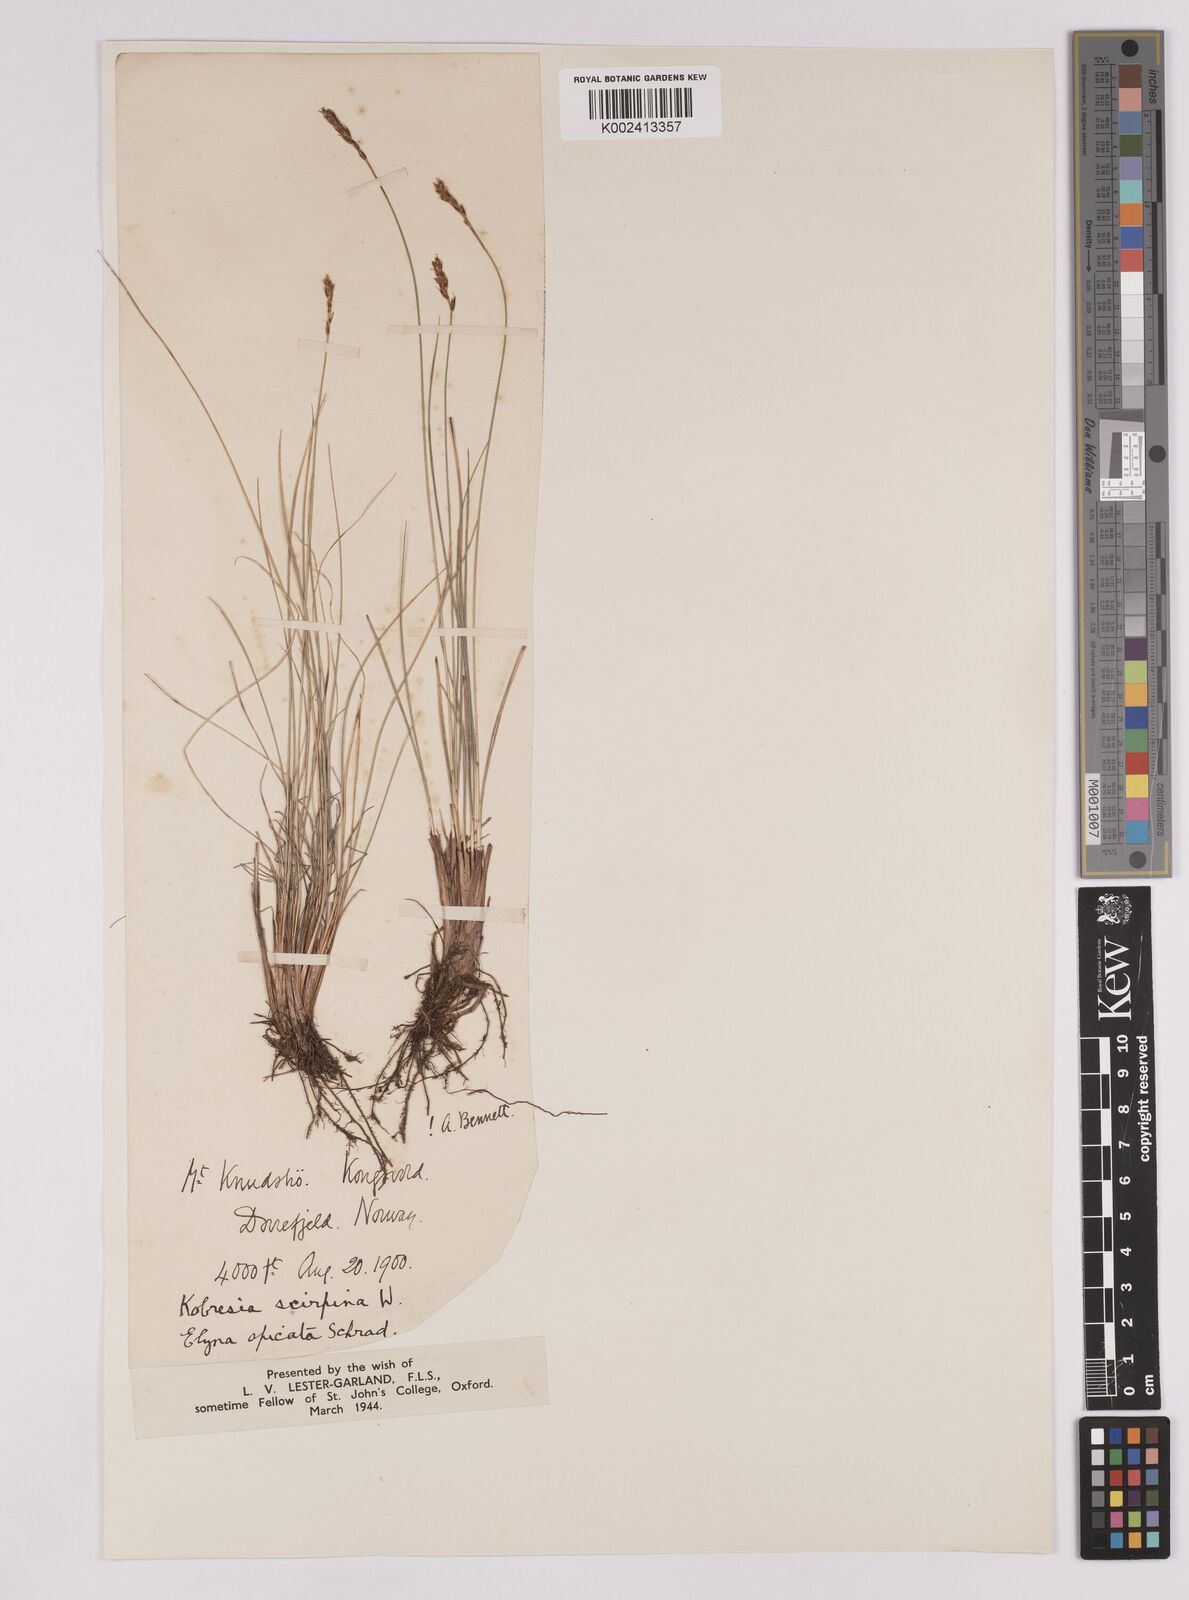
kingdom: Plantae
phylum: Tracheophyta
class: Liliopsida
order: Poales
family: Cyperaceae
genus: Carex
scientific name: Carex myosuroides
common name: Bellard's bog sedge
